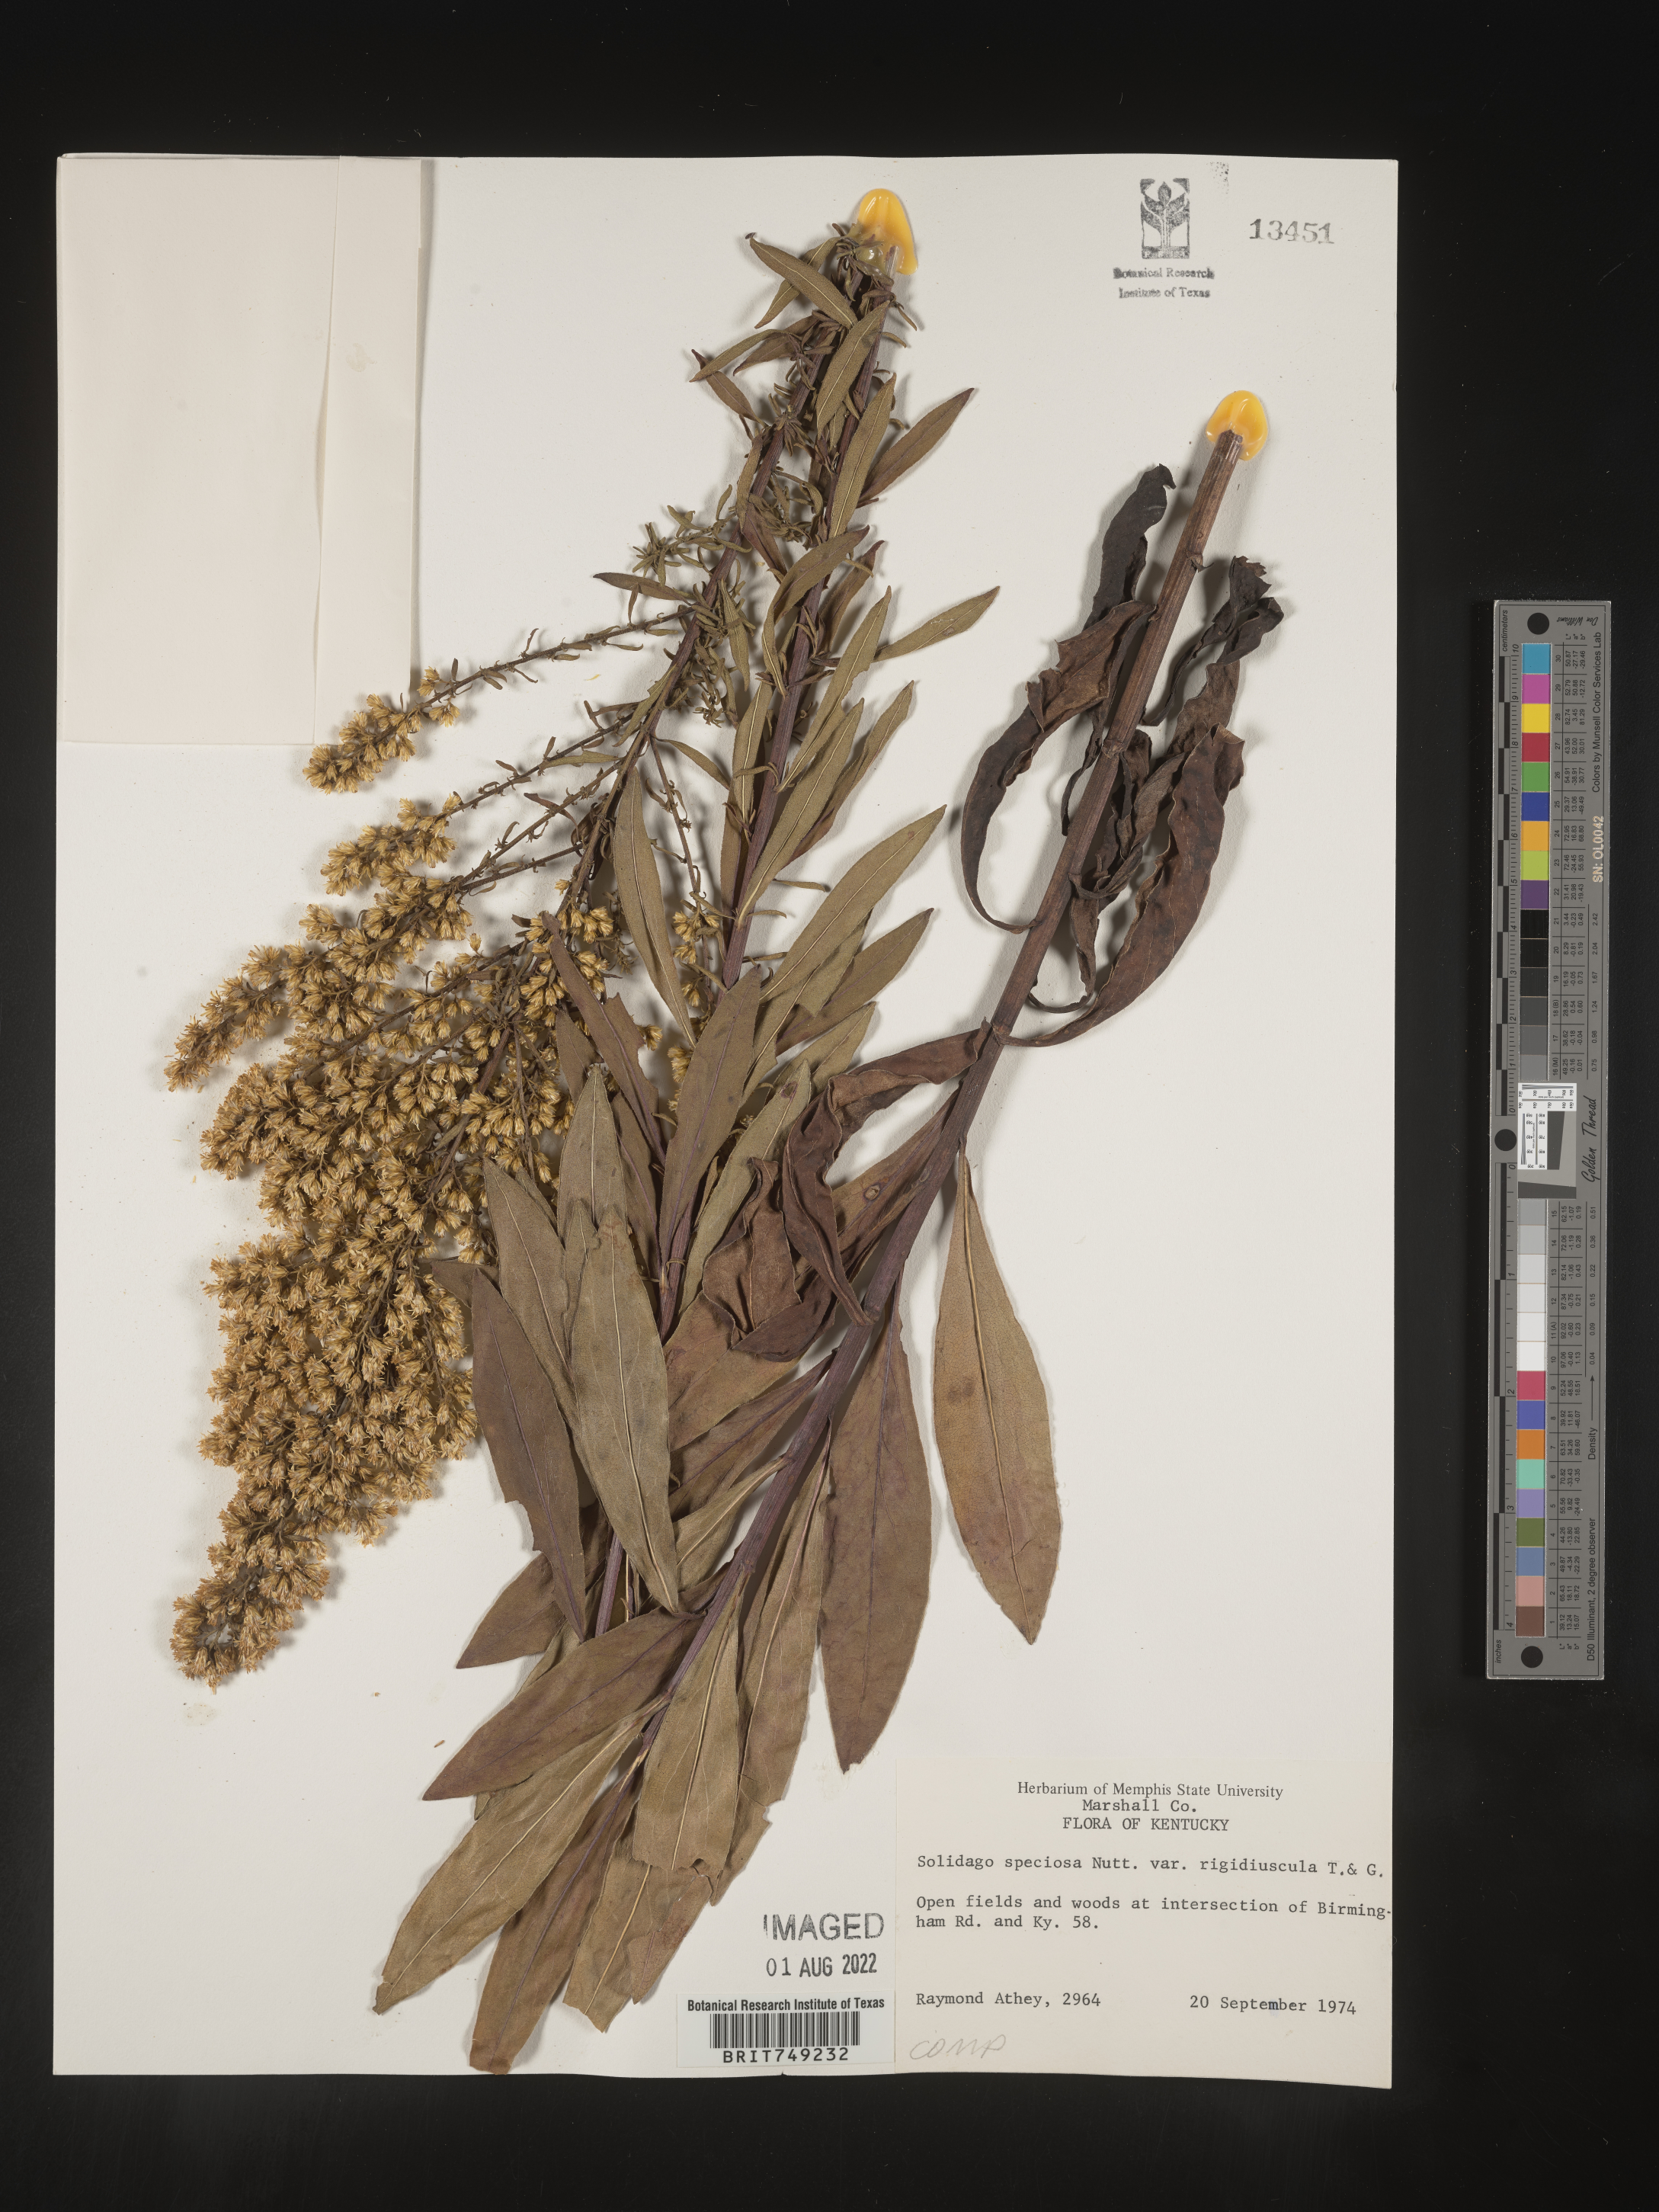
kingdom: Plantae
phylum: Tracheophyta
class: Magnoliopsida
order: Asterales
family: Asteraceae
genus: Solidago
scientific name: Solidago speciosa
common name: Showy goldenrod
